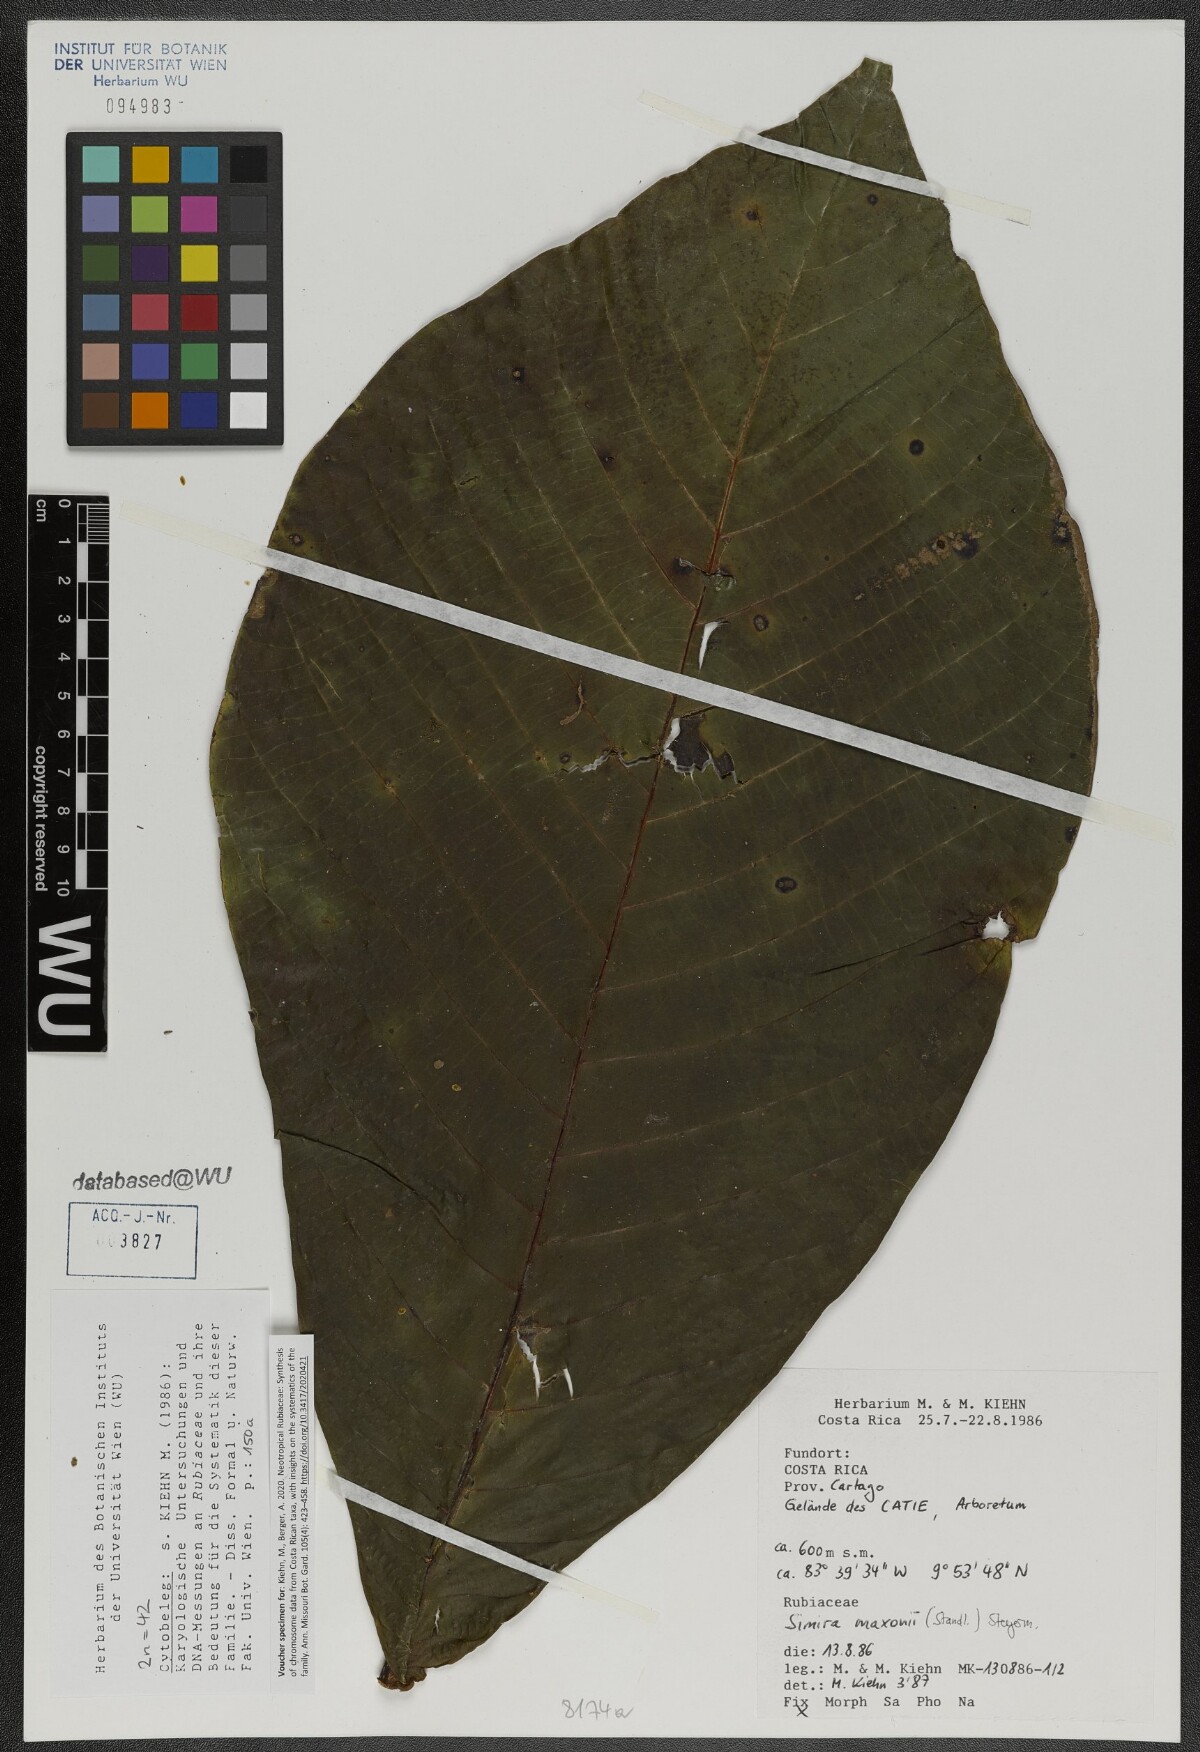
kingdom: Plantae
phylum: Tracheophyta
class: Magnoliopsida
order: Gentianales
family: Rubiaceae
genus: Simira
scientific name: Simira maxonii
